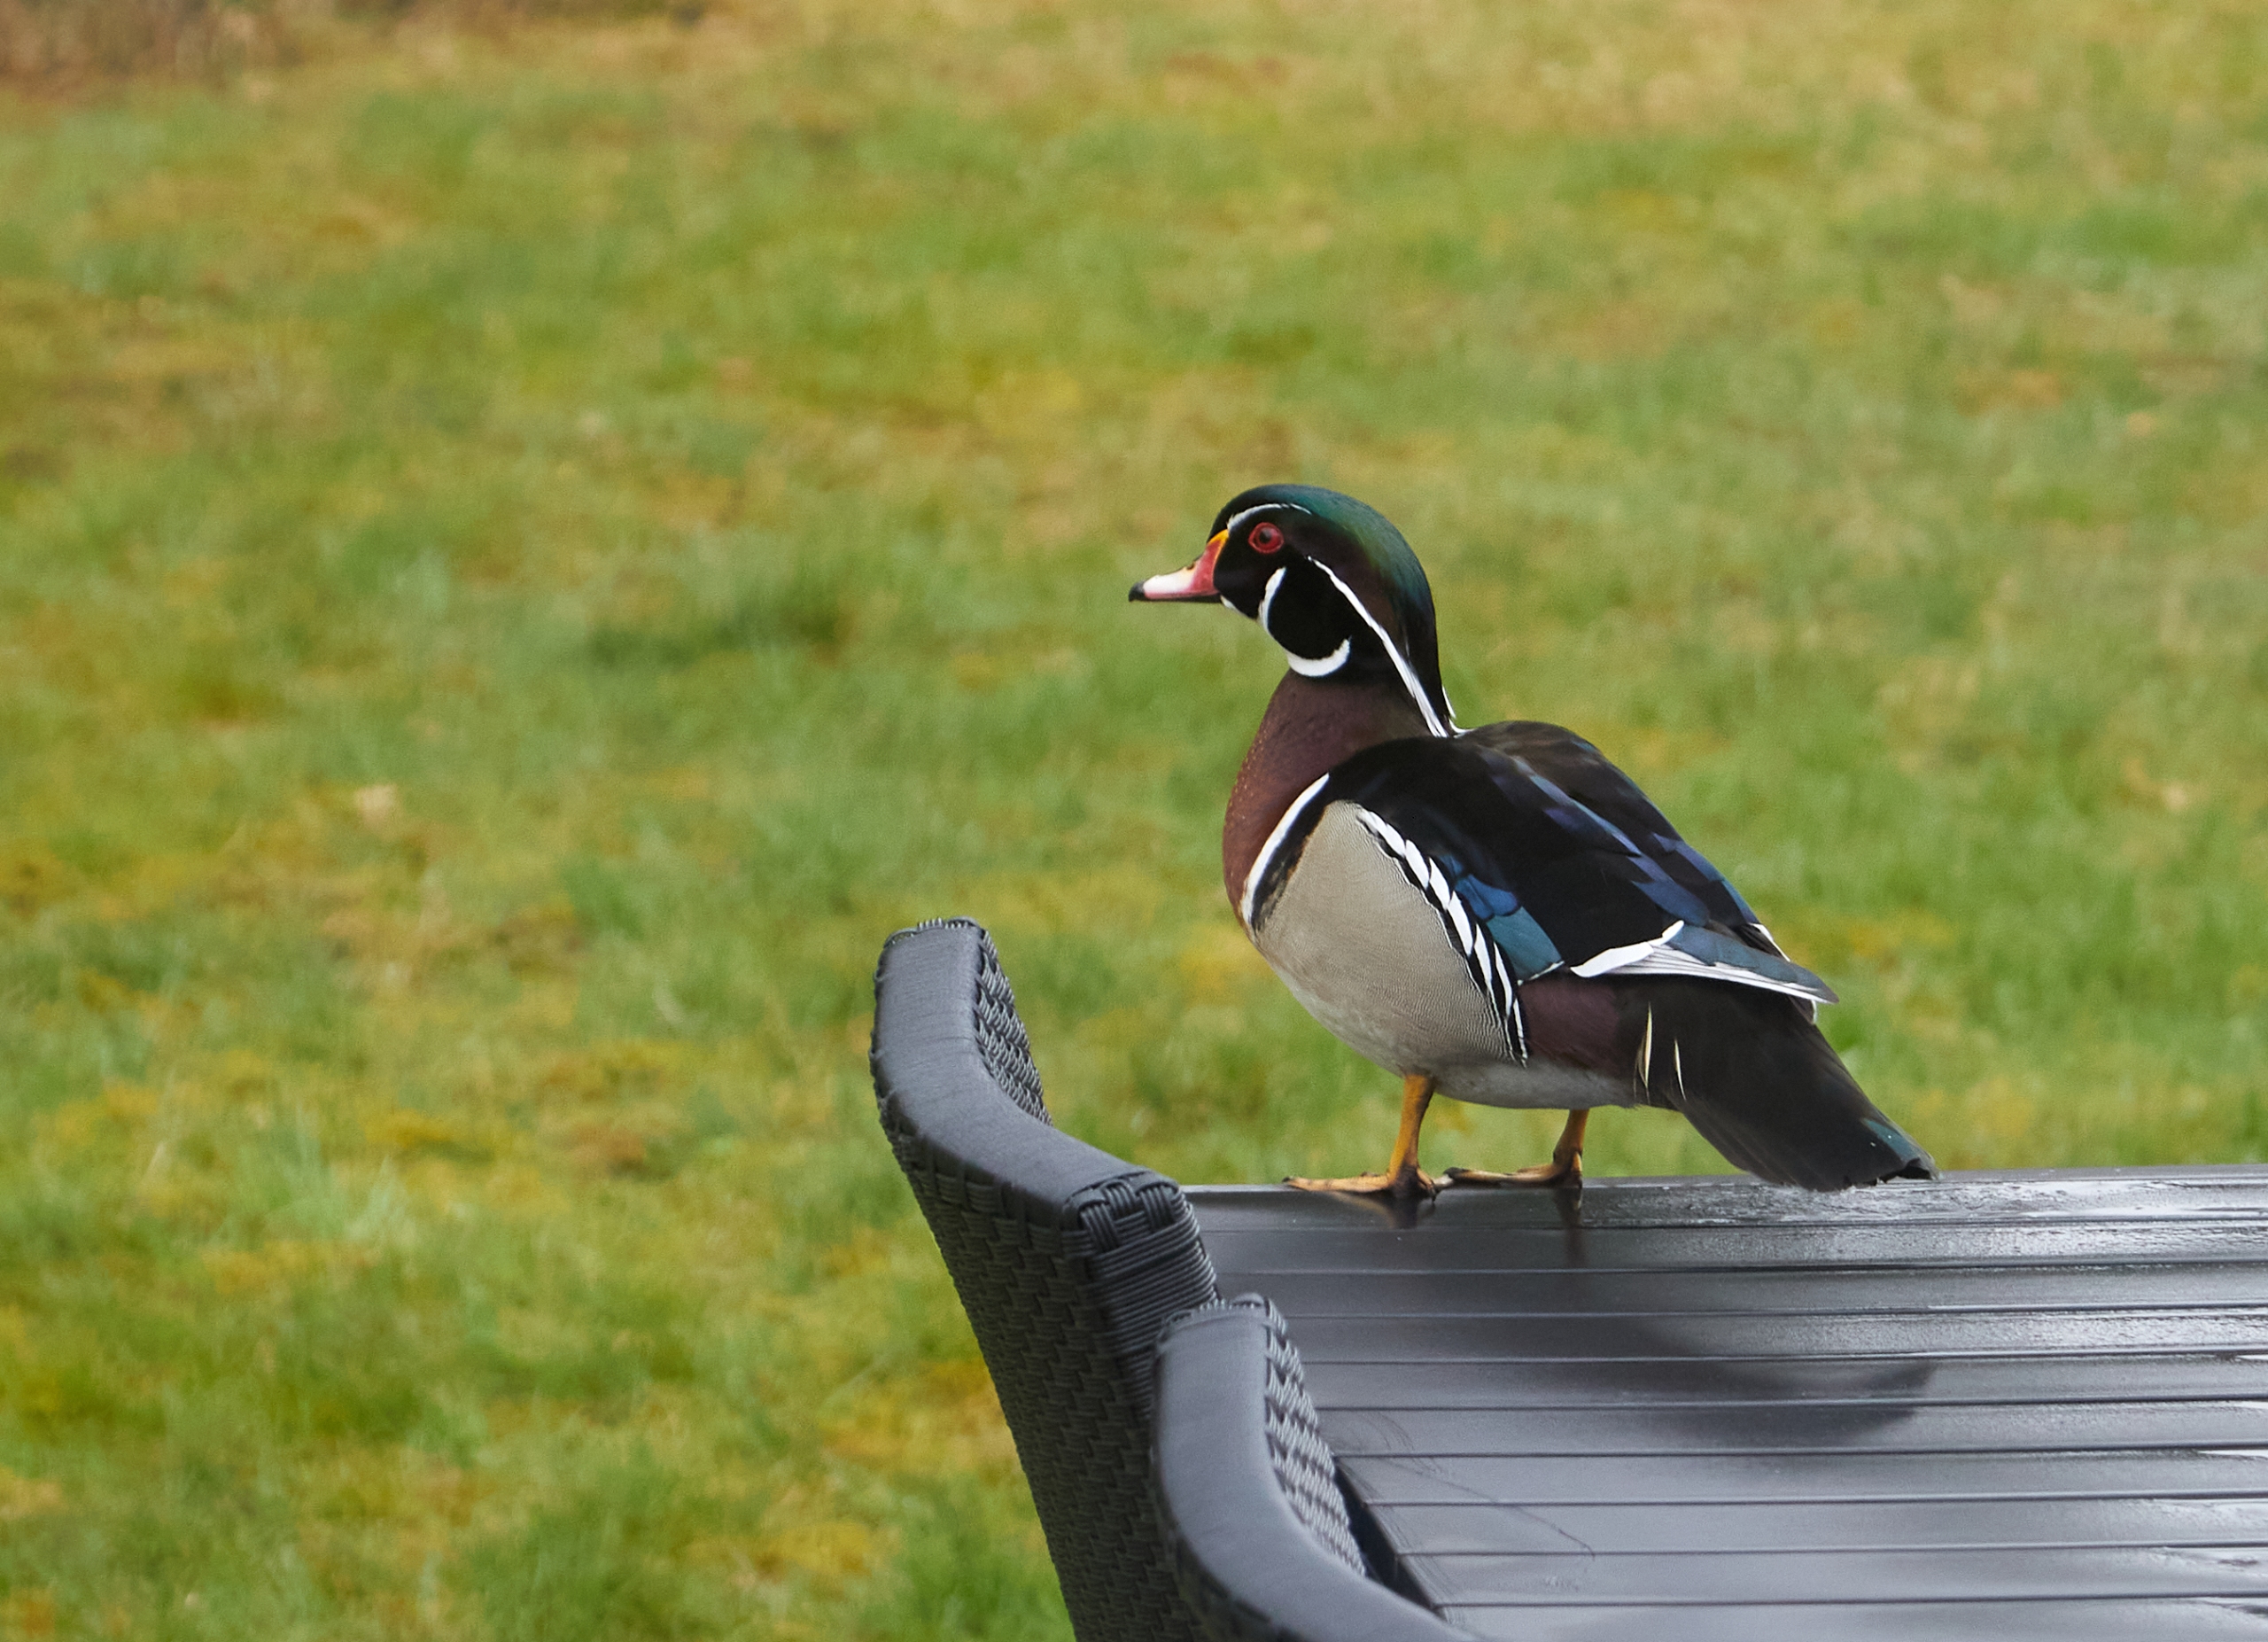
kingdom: Animalia
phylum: Chordata
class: Aves
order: Anseriformes
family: Anatidae
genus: Aix
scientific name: Aix sponsa
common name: Brudeand
